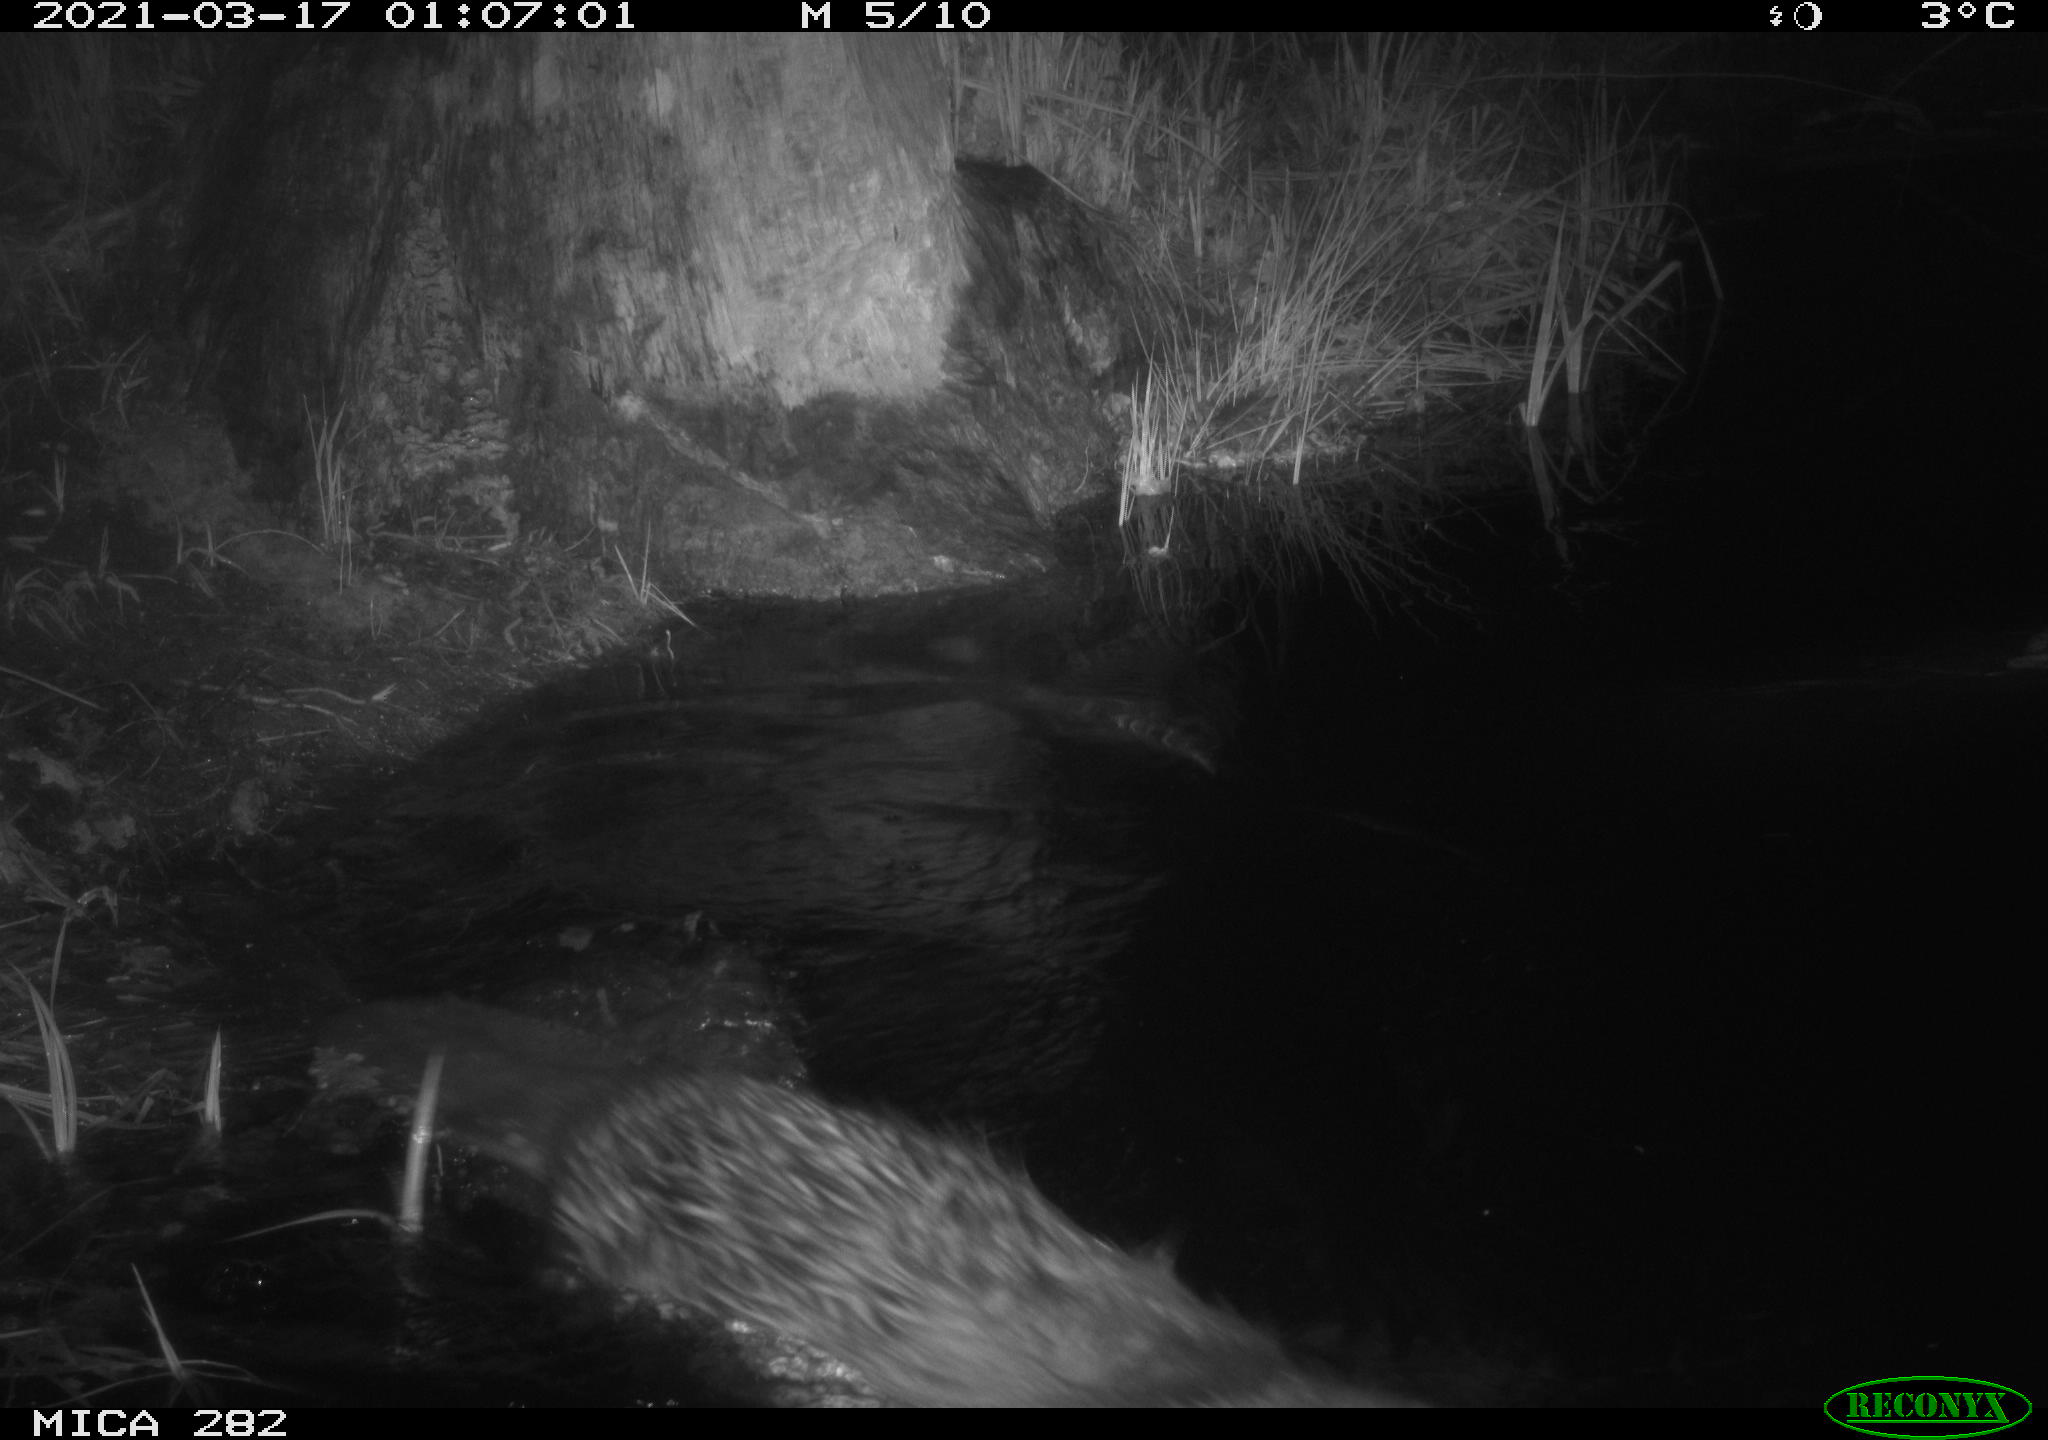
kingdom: Animalia
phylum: Chordata
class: Mammalia
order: Rodentia
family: Castoridae
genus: Castor
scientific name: Castor fiber
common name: Eurasian beaver
